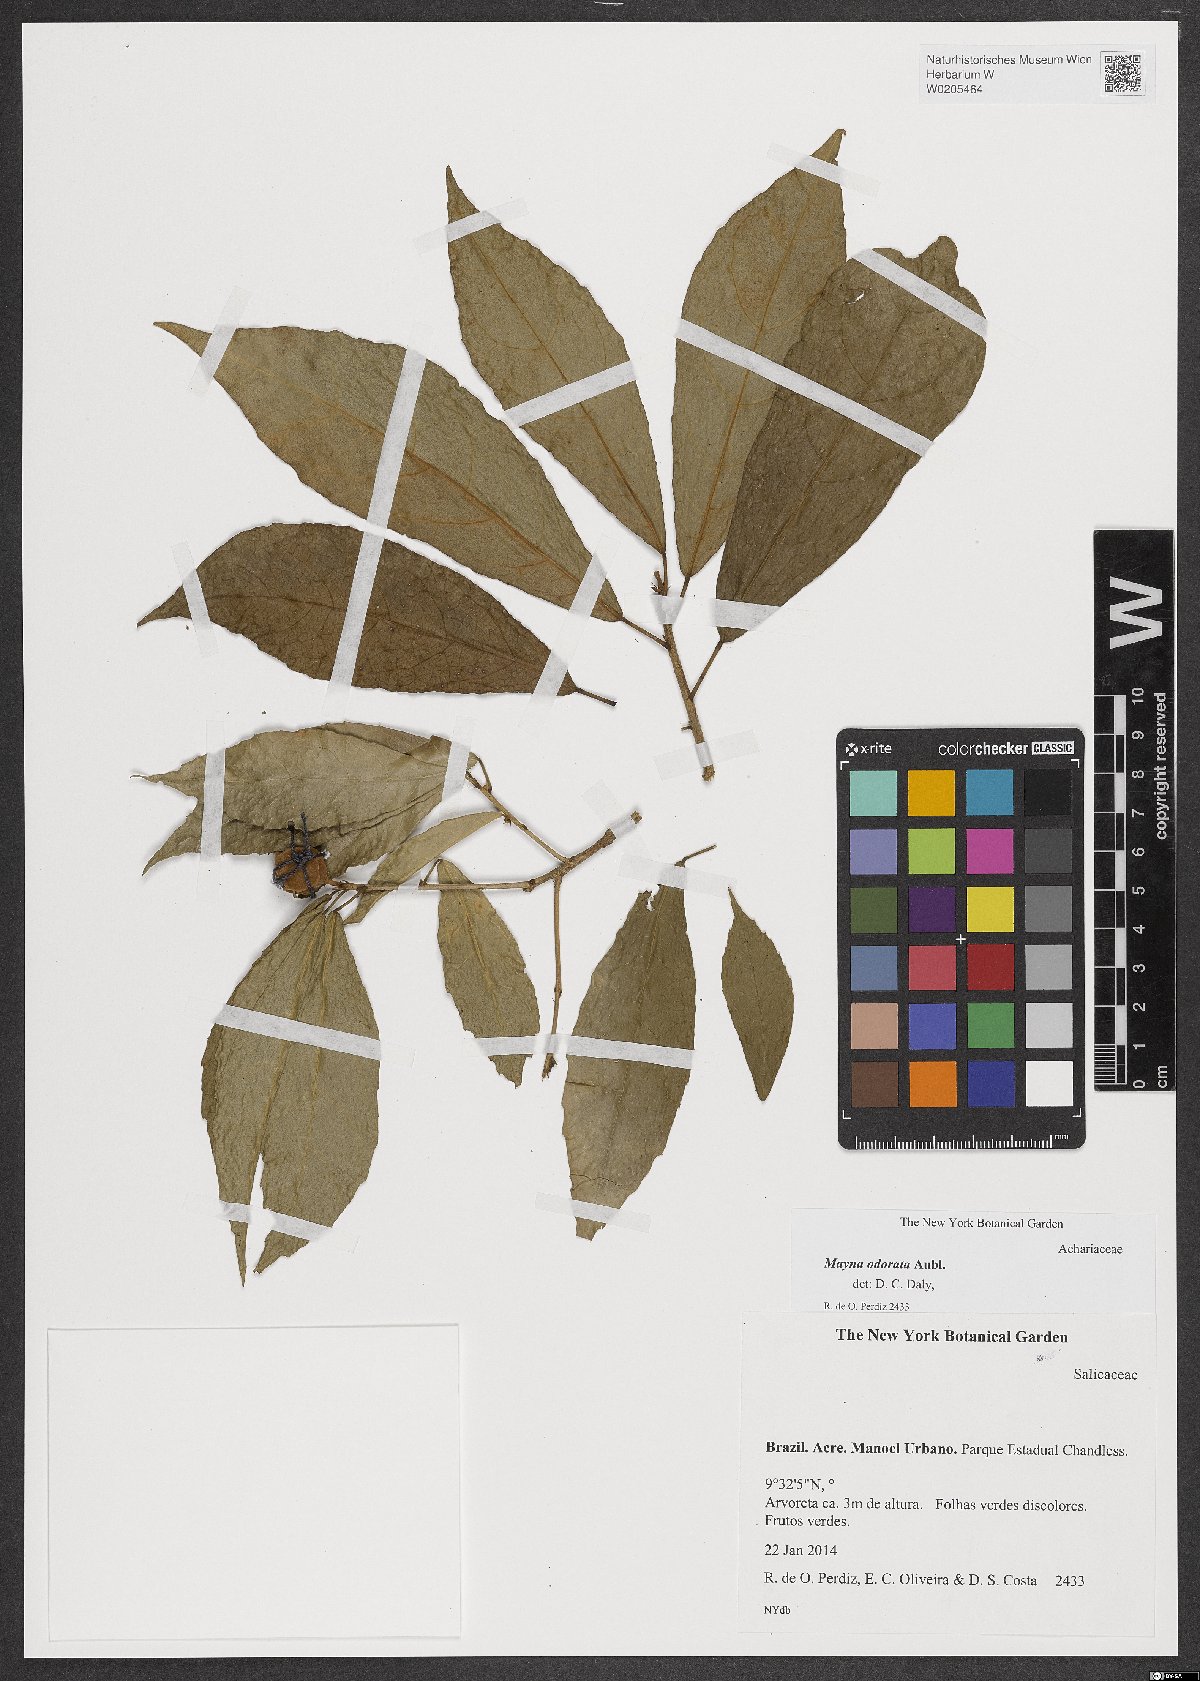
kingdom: Plantae
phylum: Tracheophyta
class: Magnoliopsida
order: Malpighiales
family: Achariaceae
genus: Mayna
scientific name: Mayna odorata
